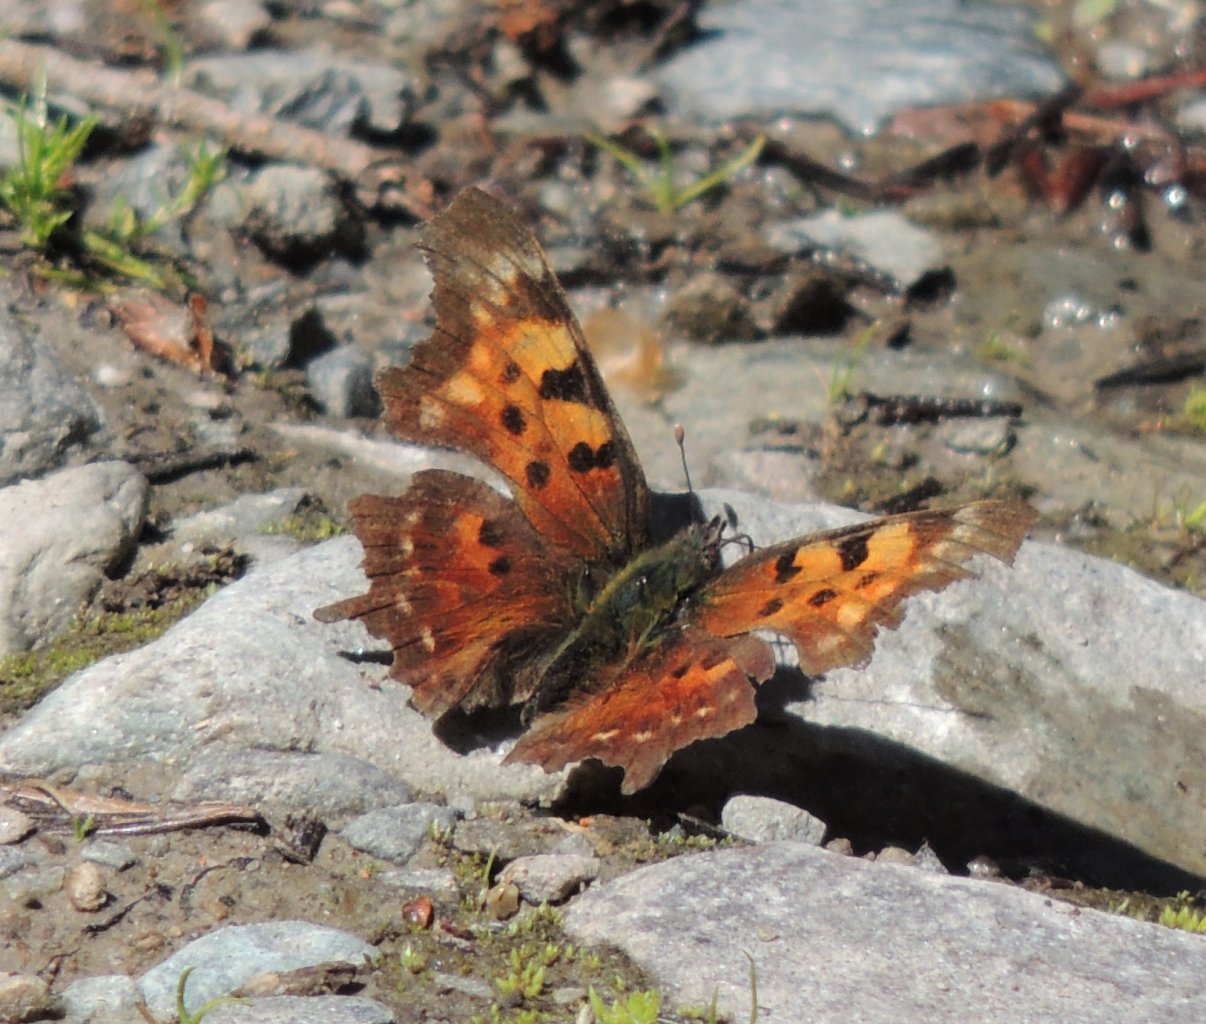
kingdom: Animalia
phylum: Arthropoda
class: Insecta
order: Lepidoptera
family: Nymphalidae
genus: Polygonia
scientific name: Polygonia faunus
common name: Green Comma
